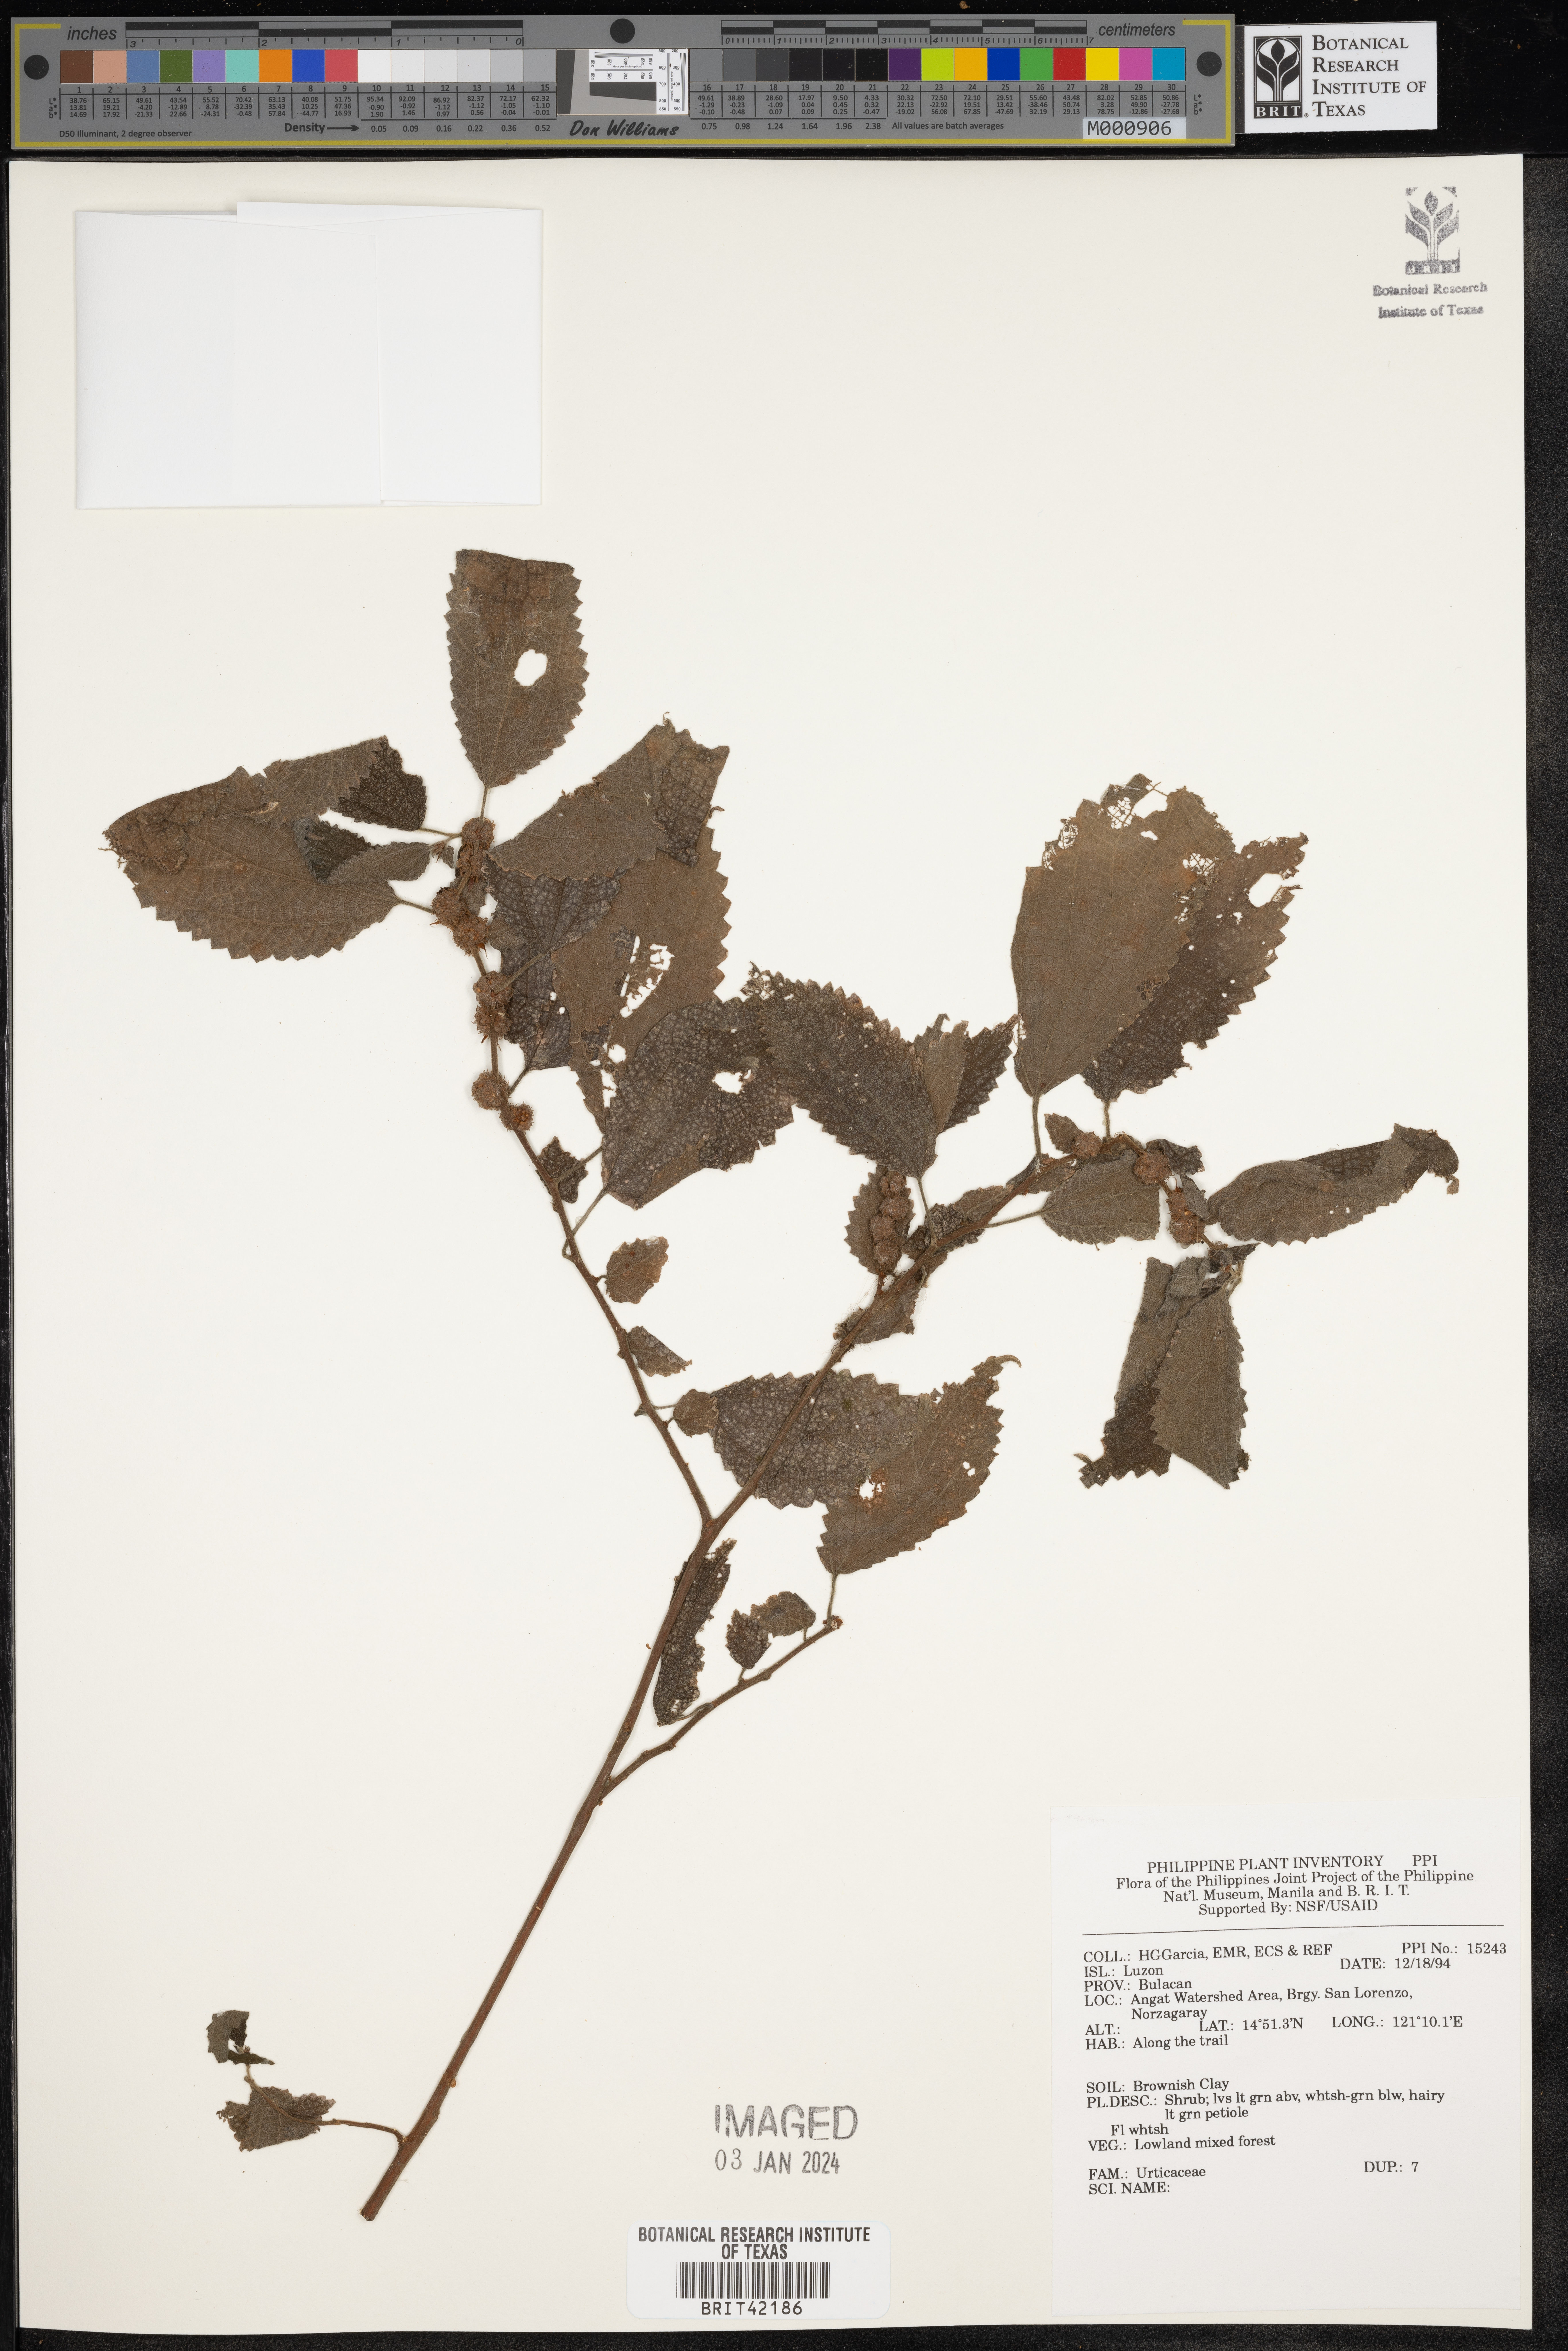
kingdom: Plantae
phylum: Tracheophyta
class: Magnoliopsida
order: Rosales
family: Urticaceae
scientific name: Urticaceae
